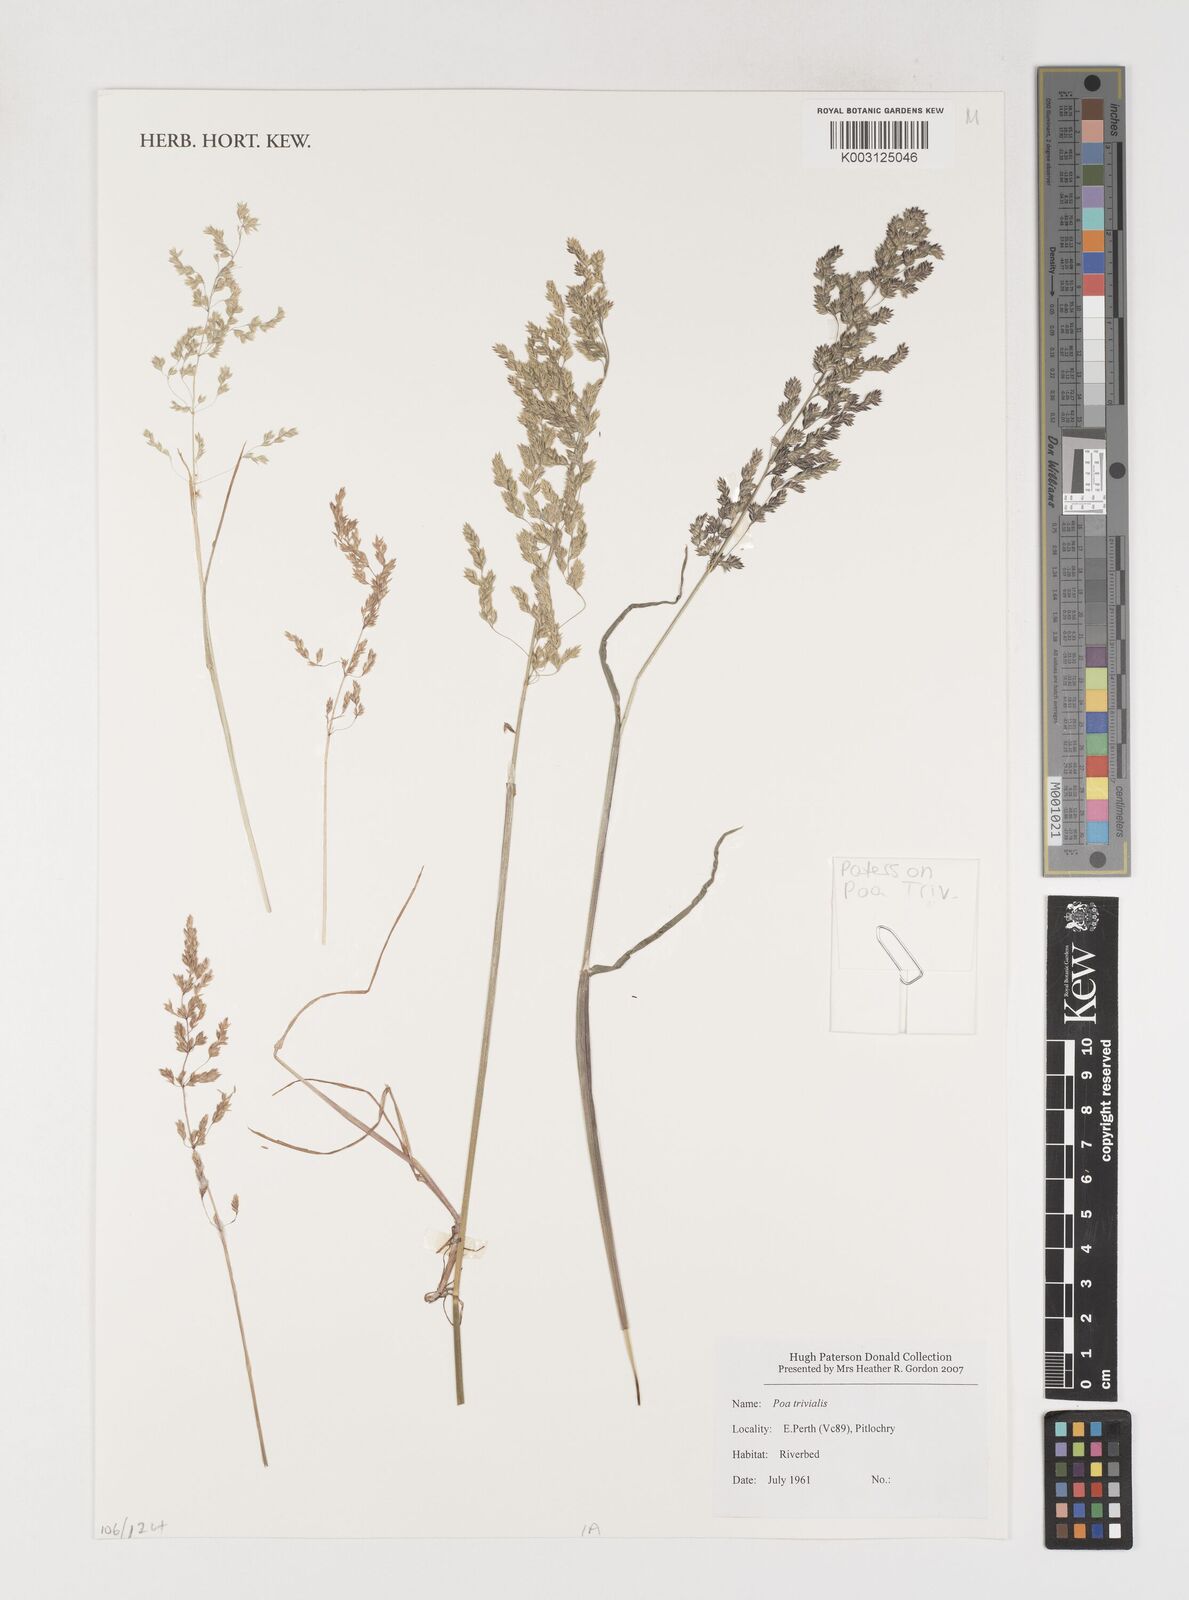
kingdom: Plantae
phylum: Tracheophyta
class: Liliopsida
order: Poales
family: Poaceae
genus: Poa
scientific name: Poa trivialis
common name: Rough bluegrass
